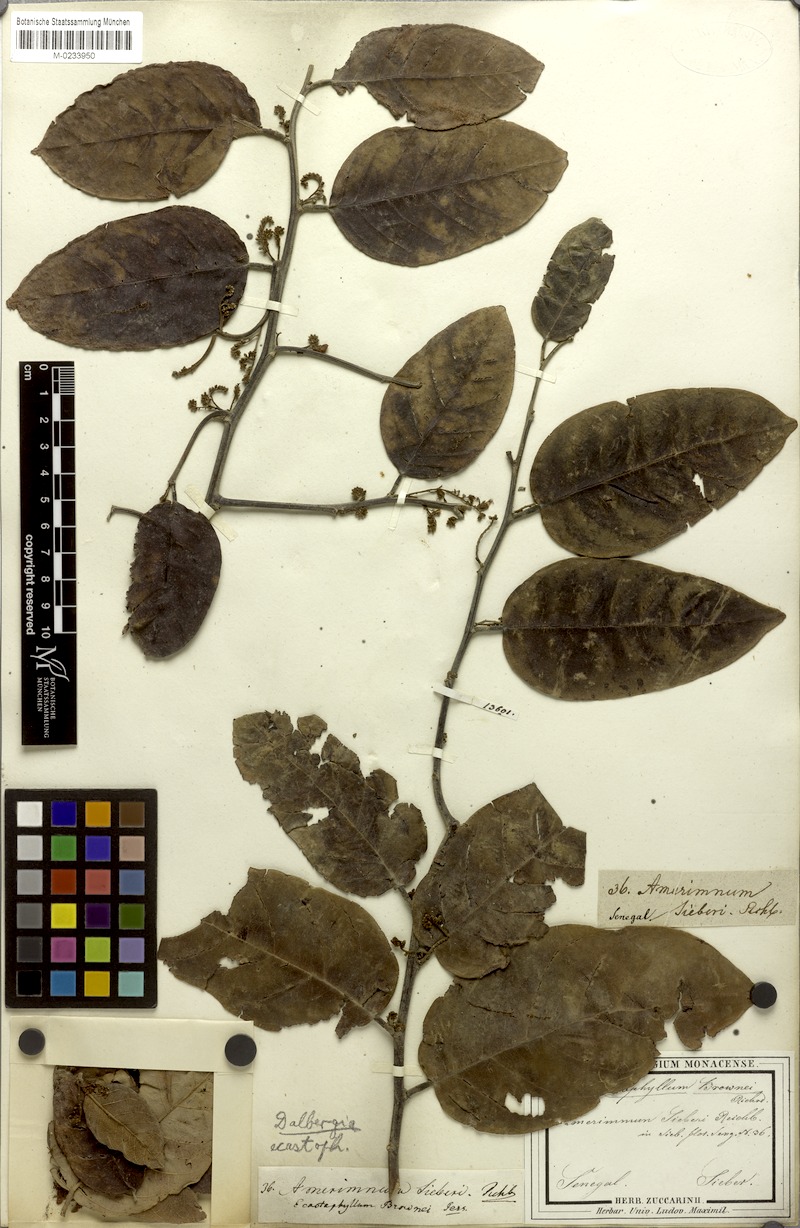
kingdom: Plantae
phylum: Tracheophyta
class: Magnoliopsida
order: Fabales
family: Fabaceae
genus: Dalbergia
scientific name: Dalbergia ecastaphyllum
